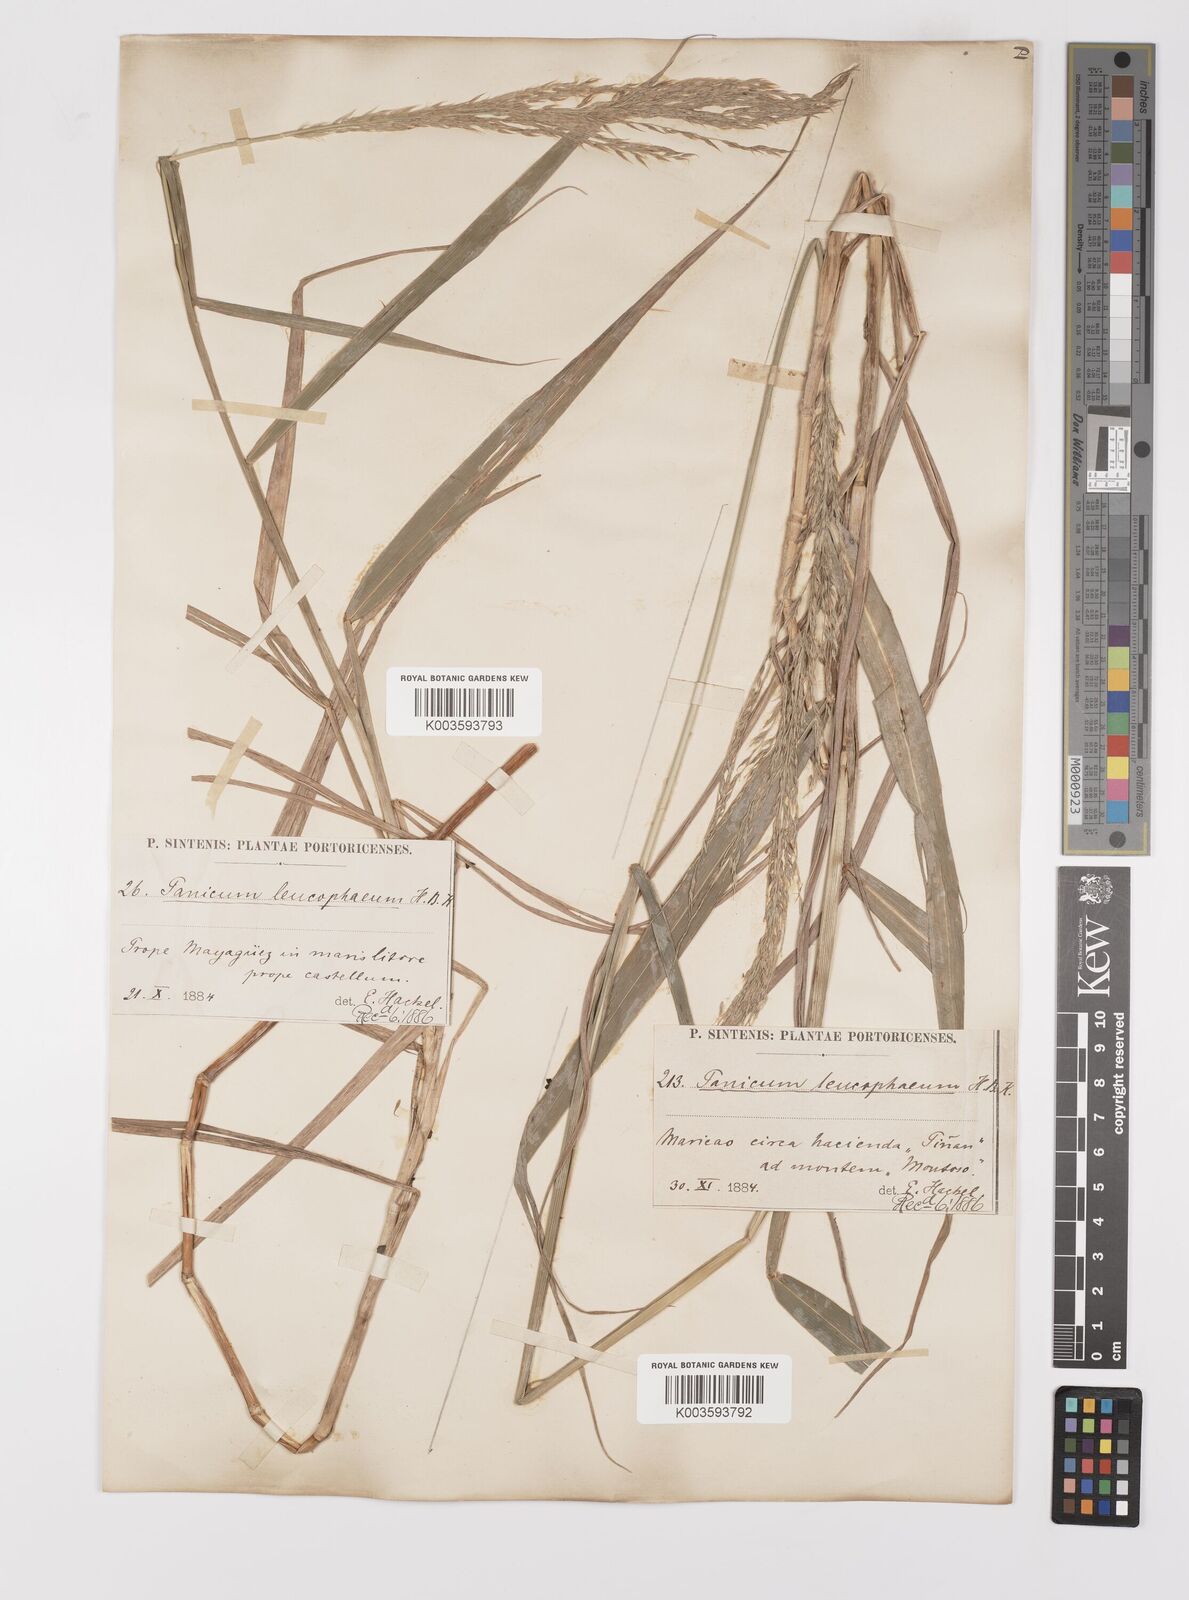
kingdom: Plantae
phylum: Tracheophyta
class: Liliopsida
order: Poales
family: Poaceae
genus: Digitaria
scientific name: Digitaria insularis
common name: Sourgrass
